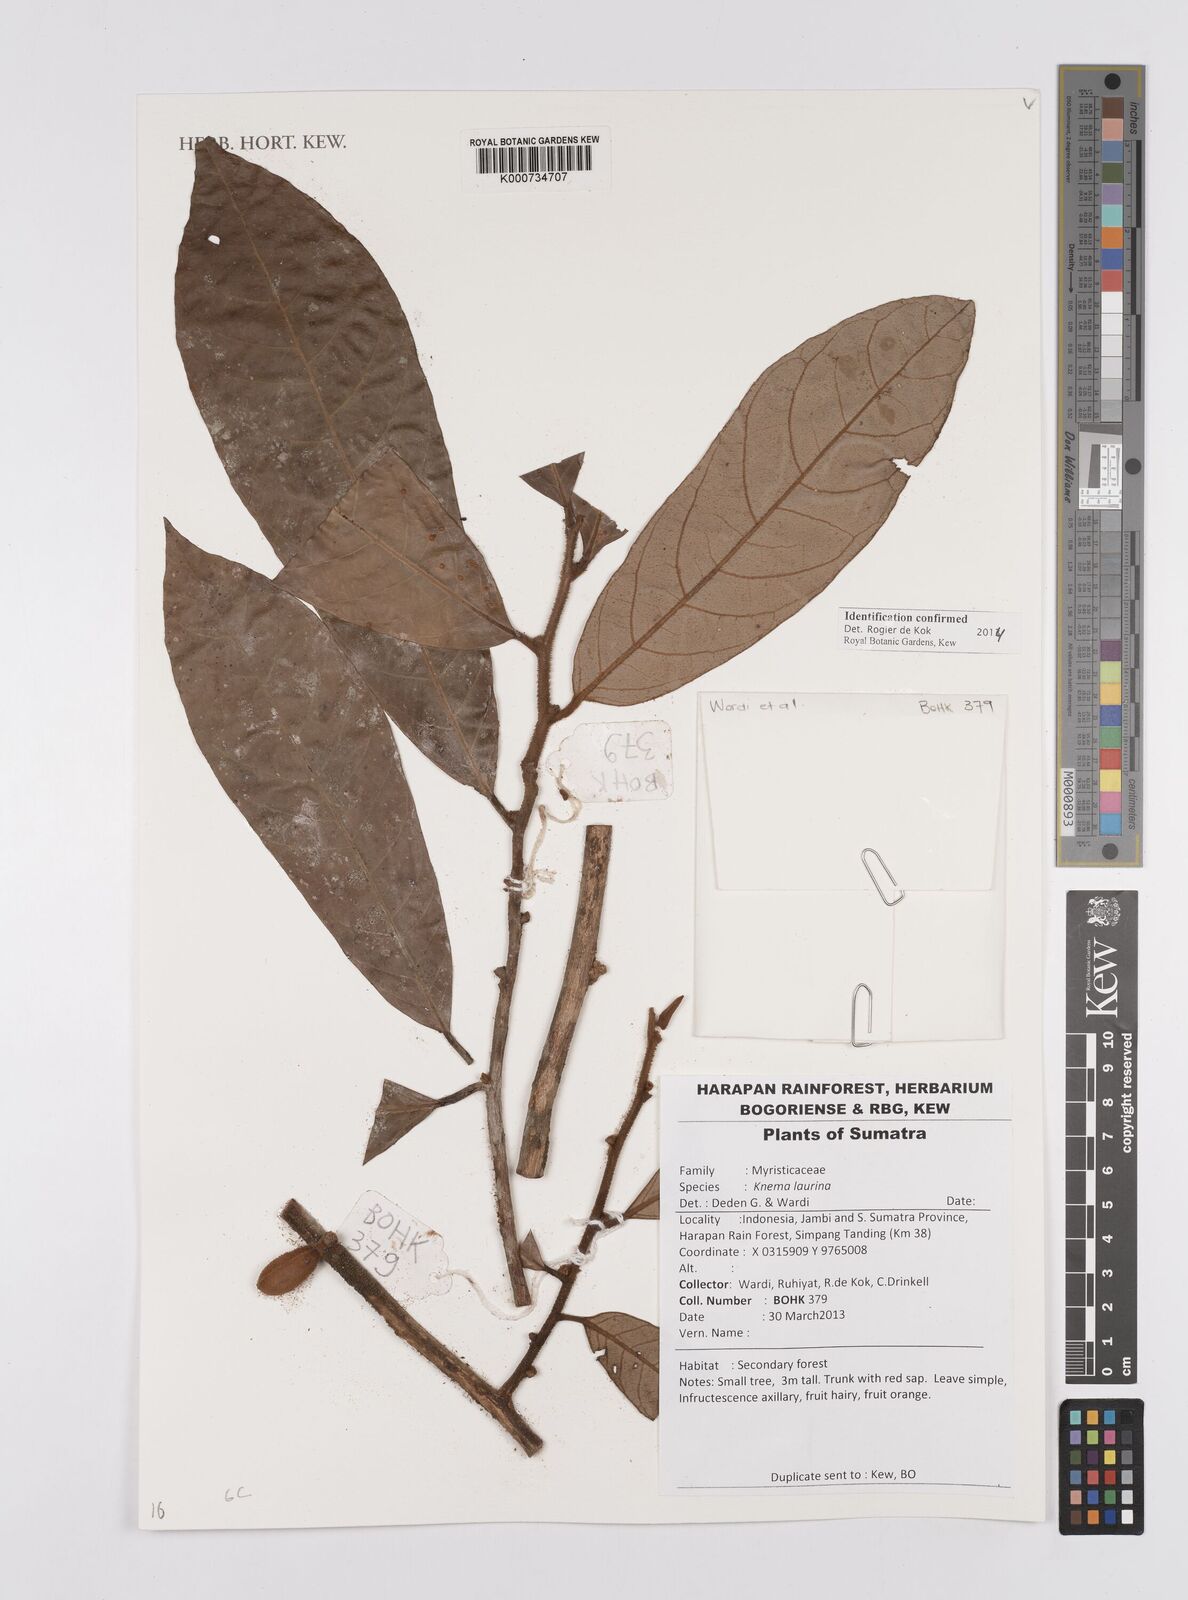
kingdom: Plantae
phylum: Tracheophyta
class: Magnoliopsida
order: Magnoliales
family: Myristicaceae
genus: Knema
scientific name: Knema laurina
